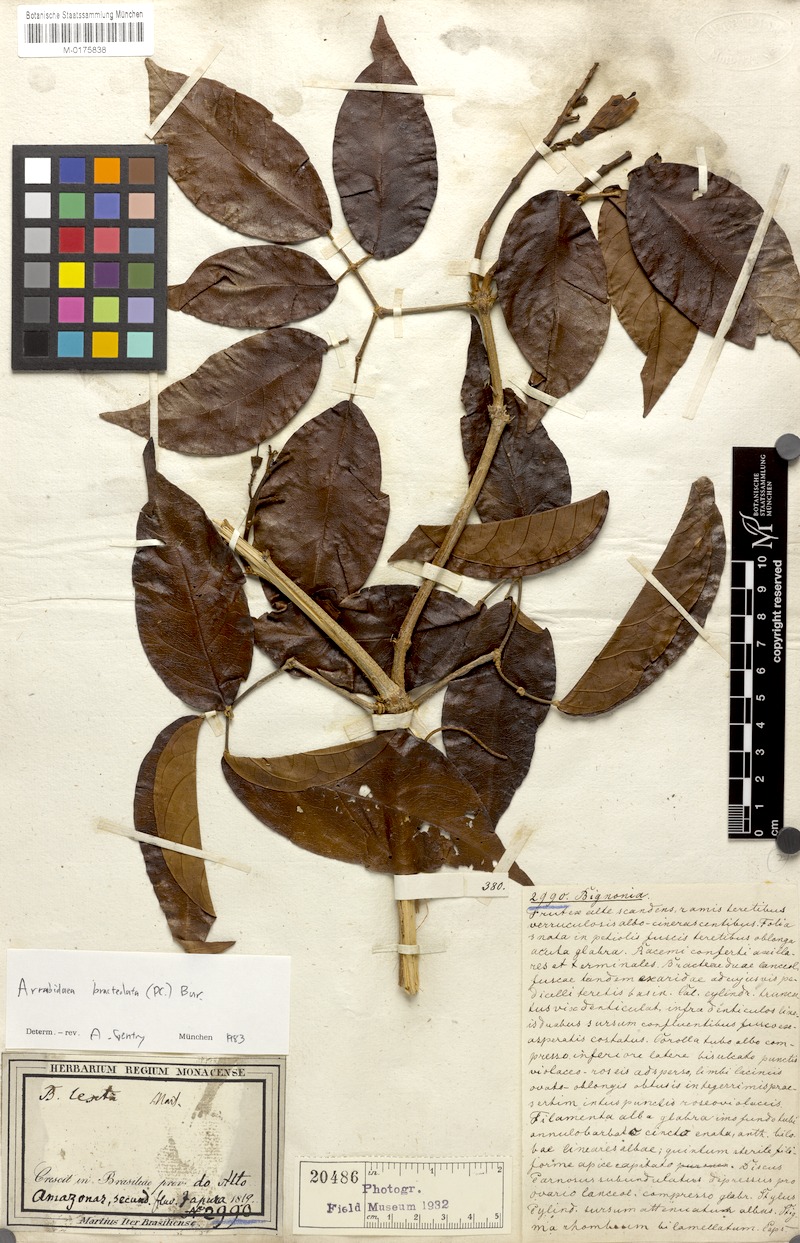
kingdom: Plantae
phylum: Tracheophyta
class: Magnoliopsida
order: Lamiales
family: Bignoniaceae
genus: Tanaecium
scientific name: Tanaecium pyramidatum
